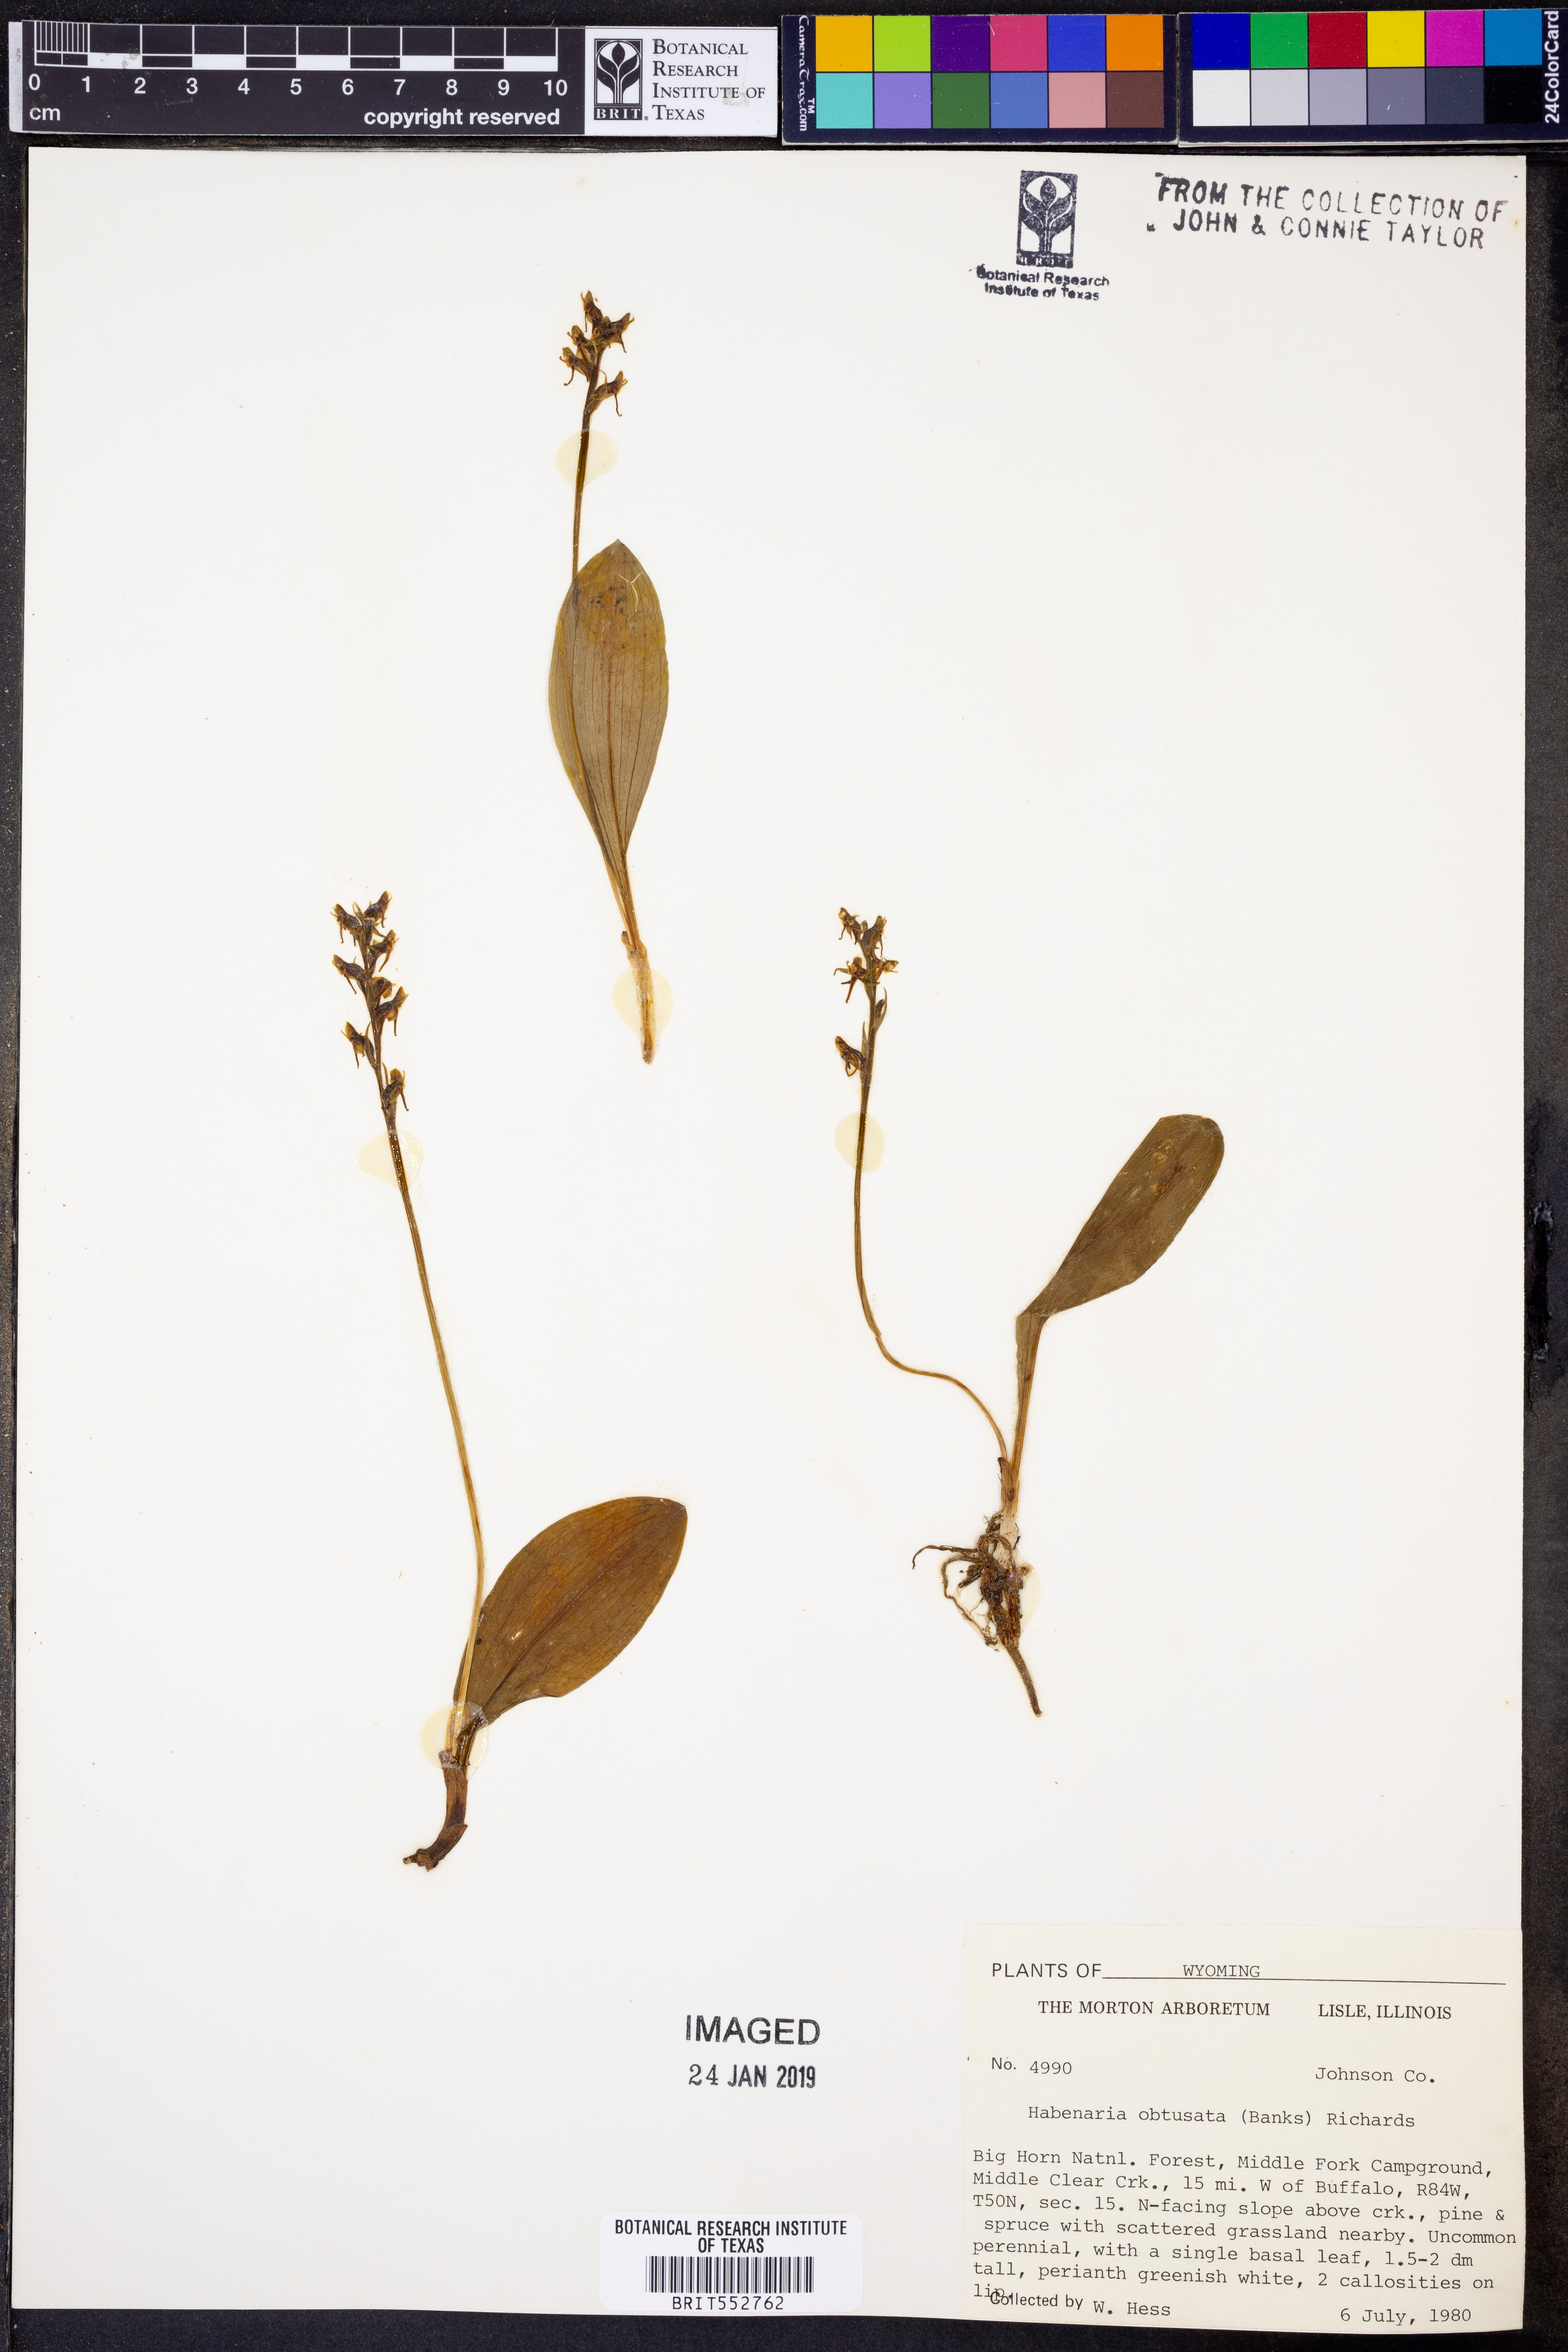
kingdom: Plantae
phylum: Tracheophyta
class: Liliopsida
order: Asparagales
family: Orchidaceae
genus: Platanthera
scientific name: Platanthera obtusata
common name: Blunt bog orchid
